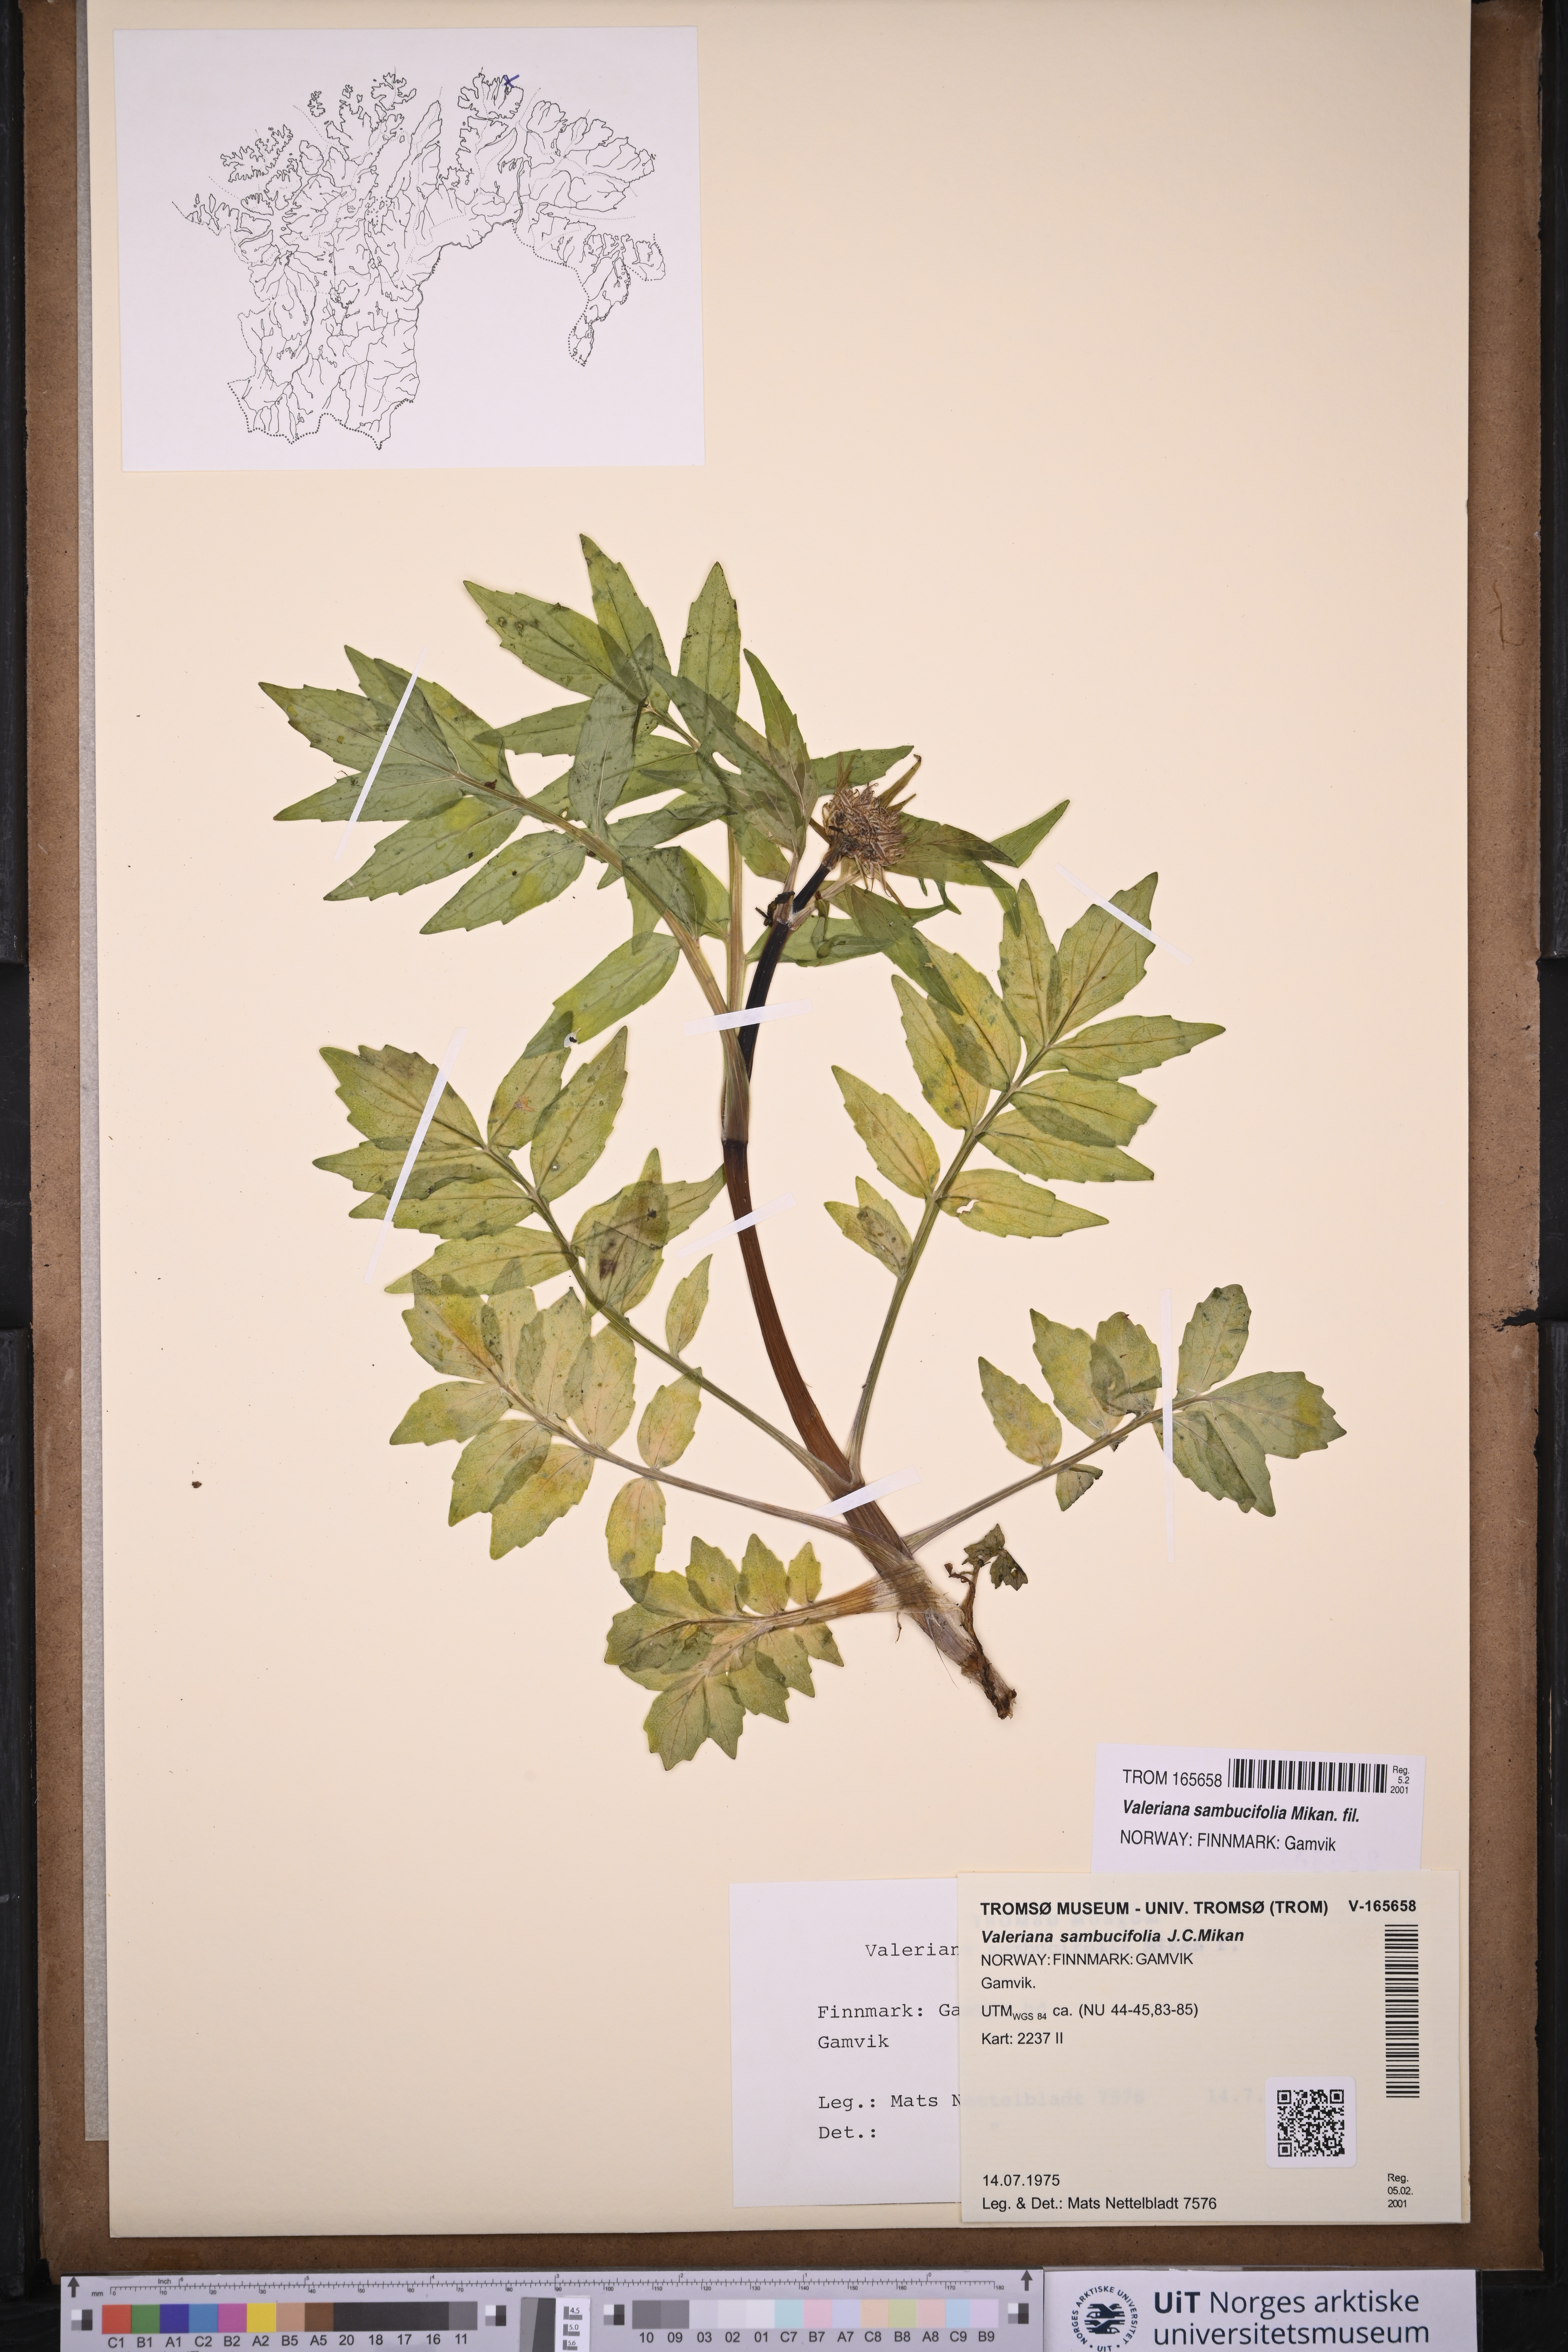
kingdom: Plantae
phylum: Tracheophyta
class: Magnoliopsida
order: Dipsacales
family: Caprifoliaceae
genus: Valeriana
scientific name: Valeriana excelsa
